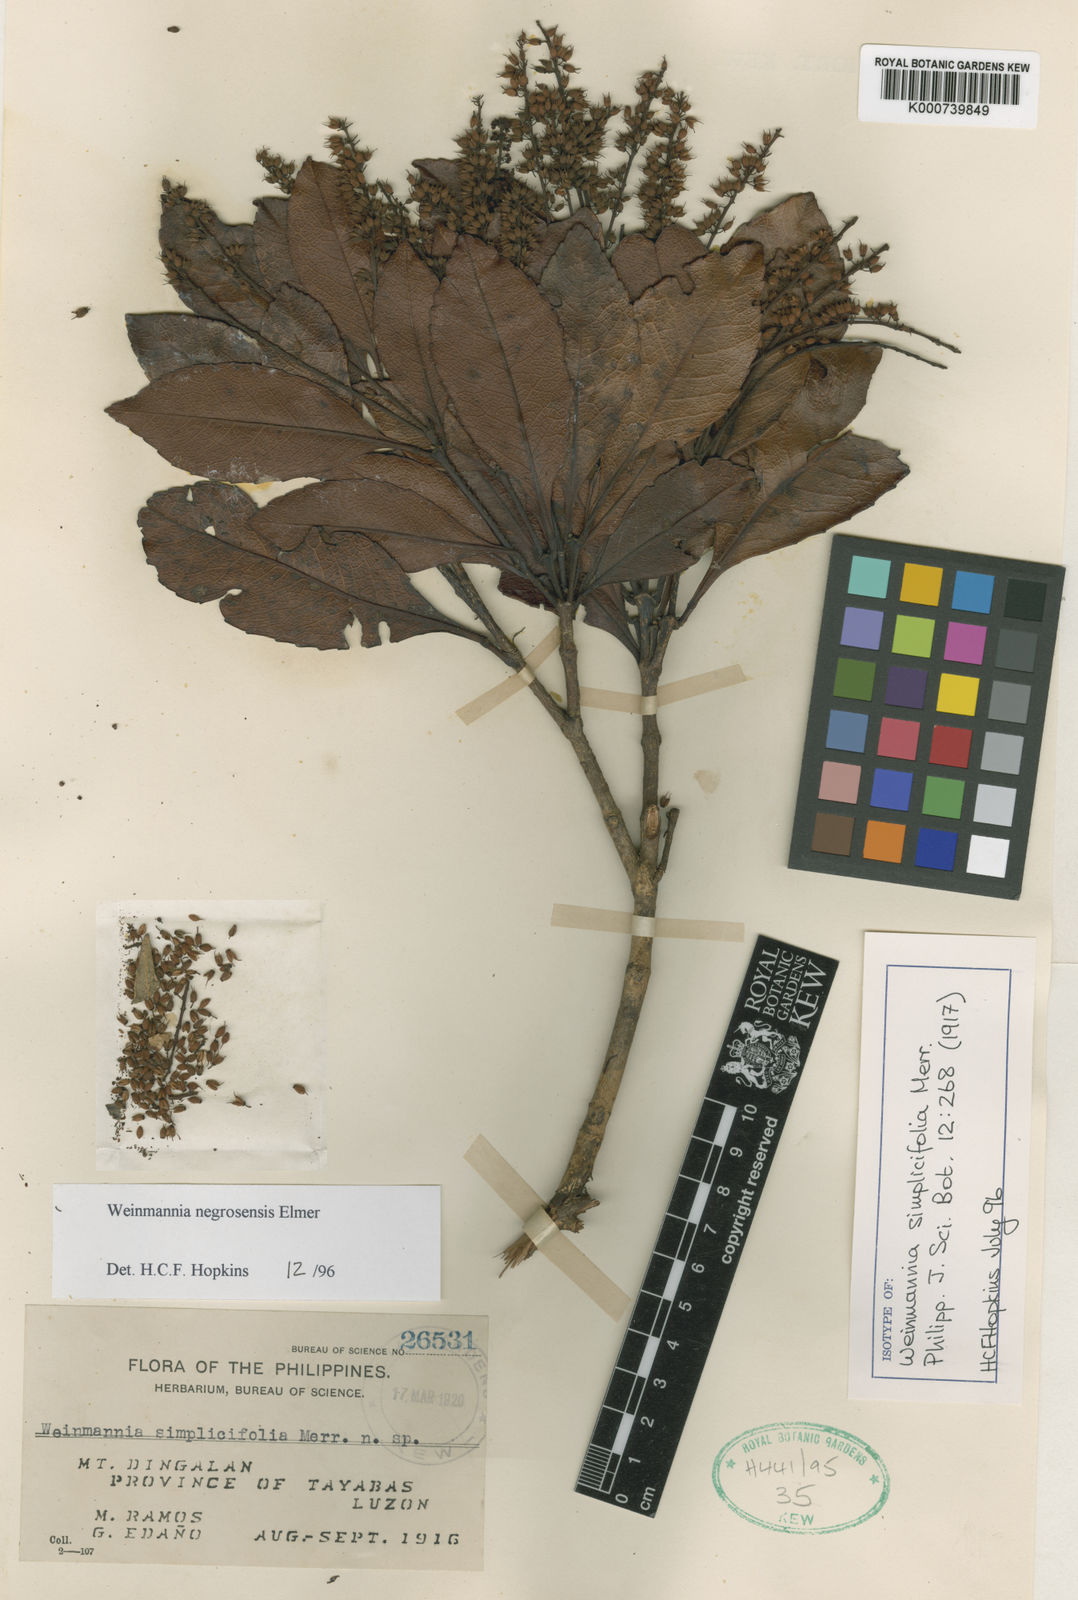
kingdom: Plantae
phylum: Tracheophyta
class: Magnoliopsida
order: Oxalidales
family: Cunoniaceae
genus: Pterophylla
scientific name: Pterophylla negrosensis
